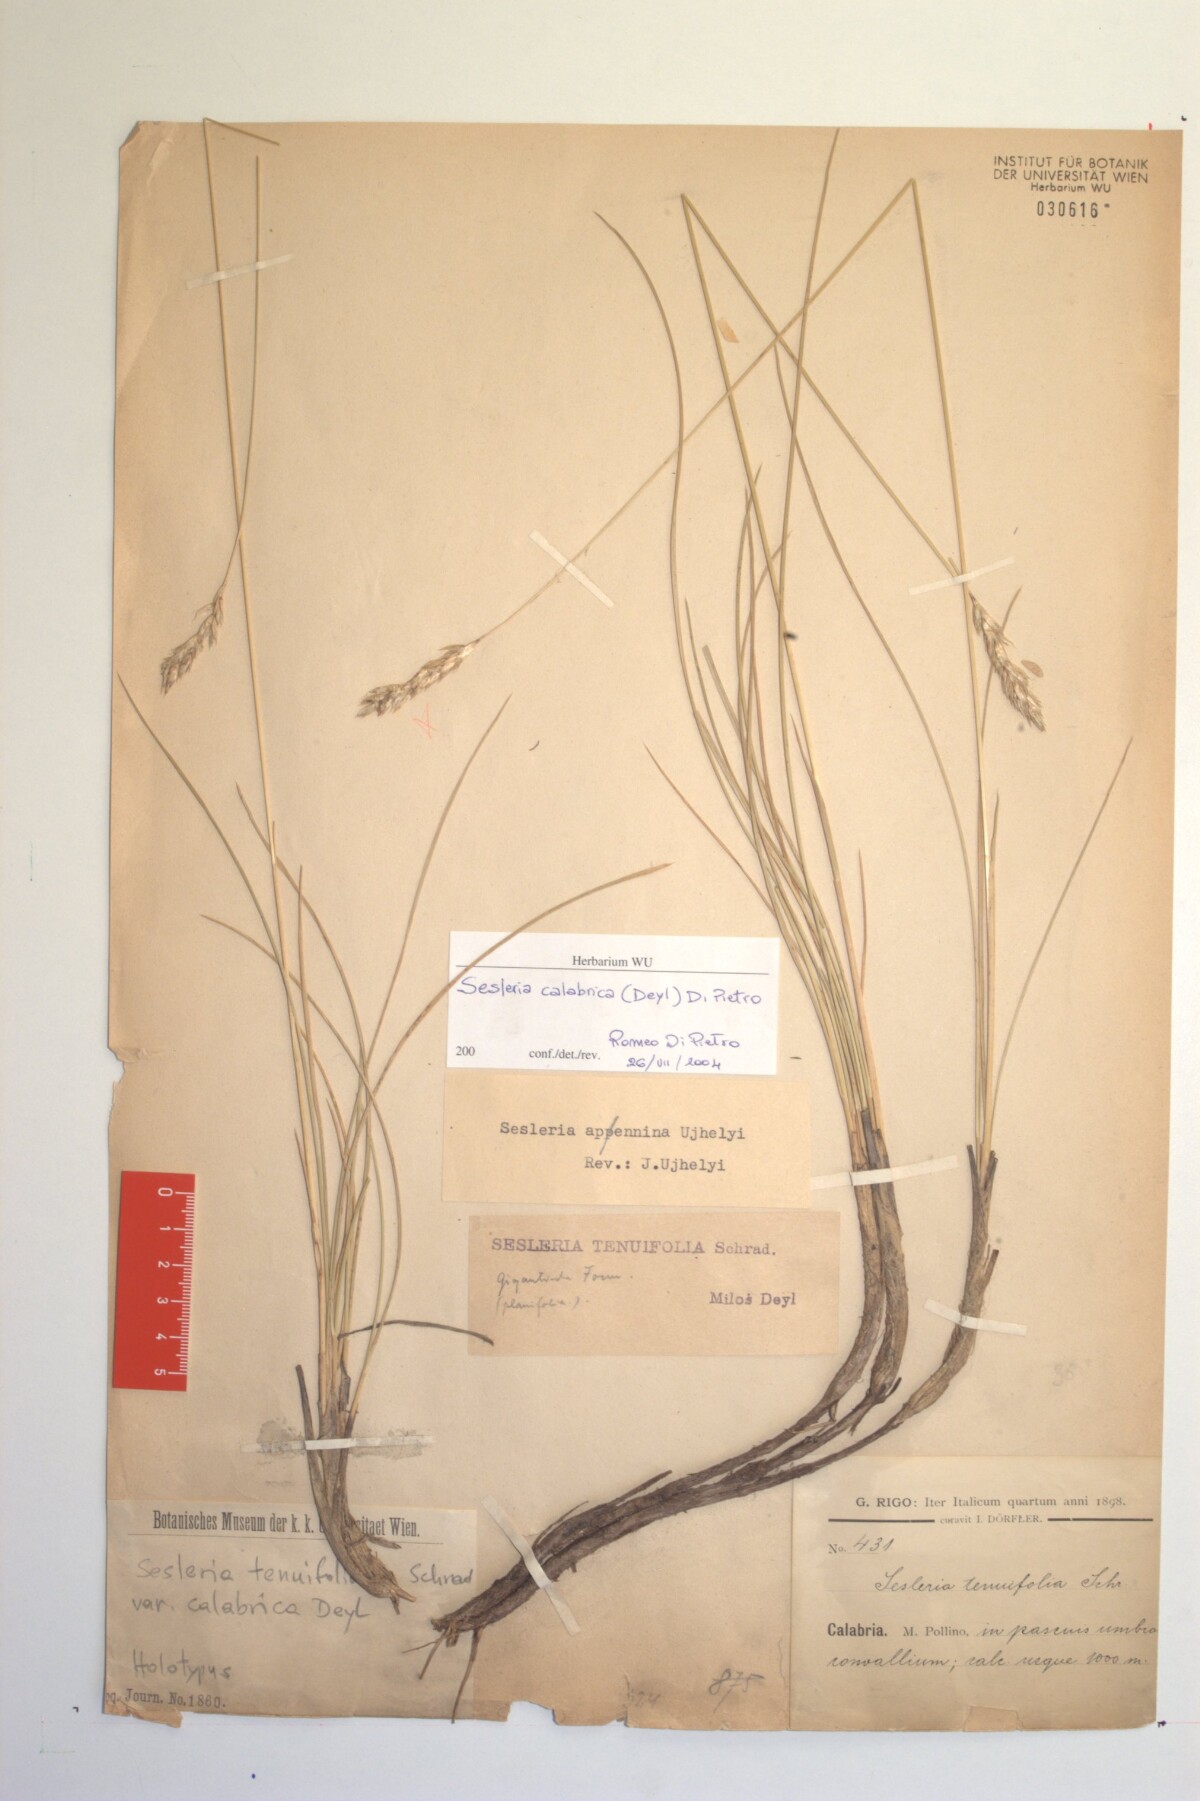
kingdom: Plantae
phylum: Tracheophyta
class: Liliopsida
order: Poales
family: Poaceae
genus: Sesleria
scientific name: Sesleria calabrica
